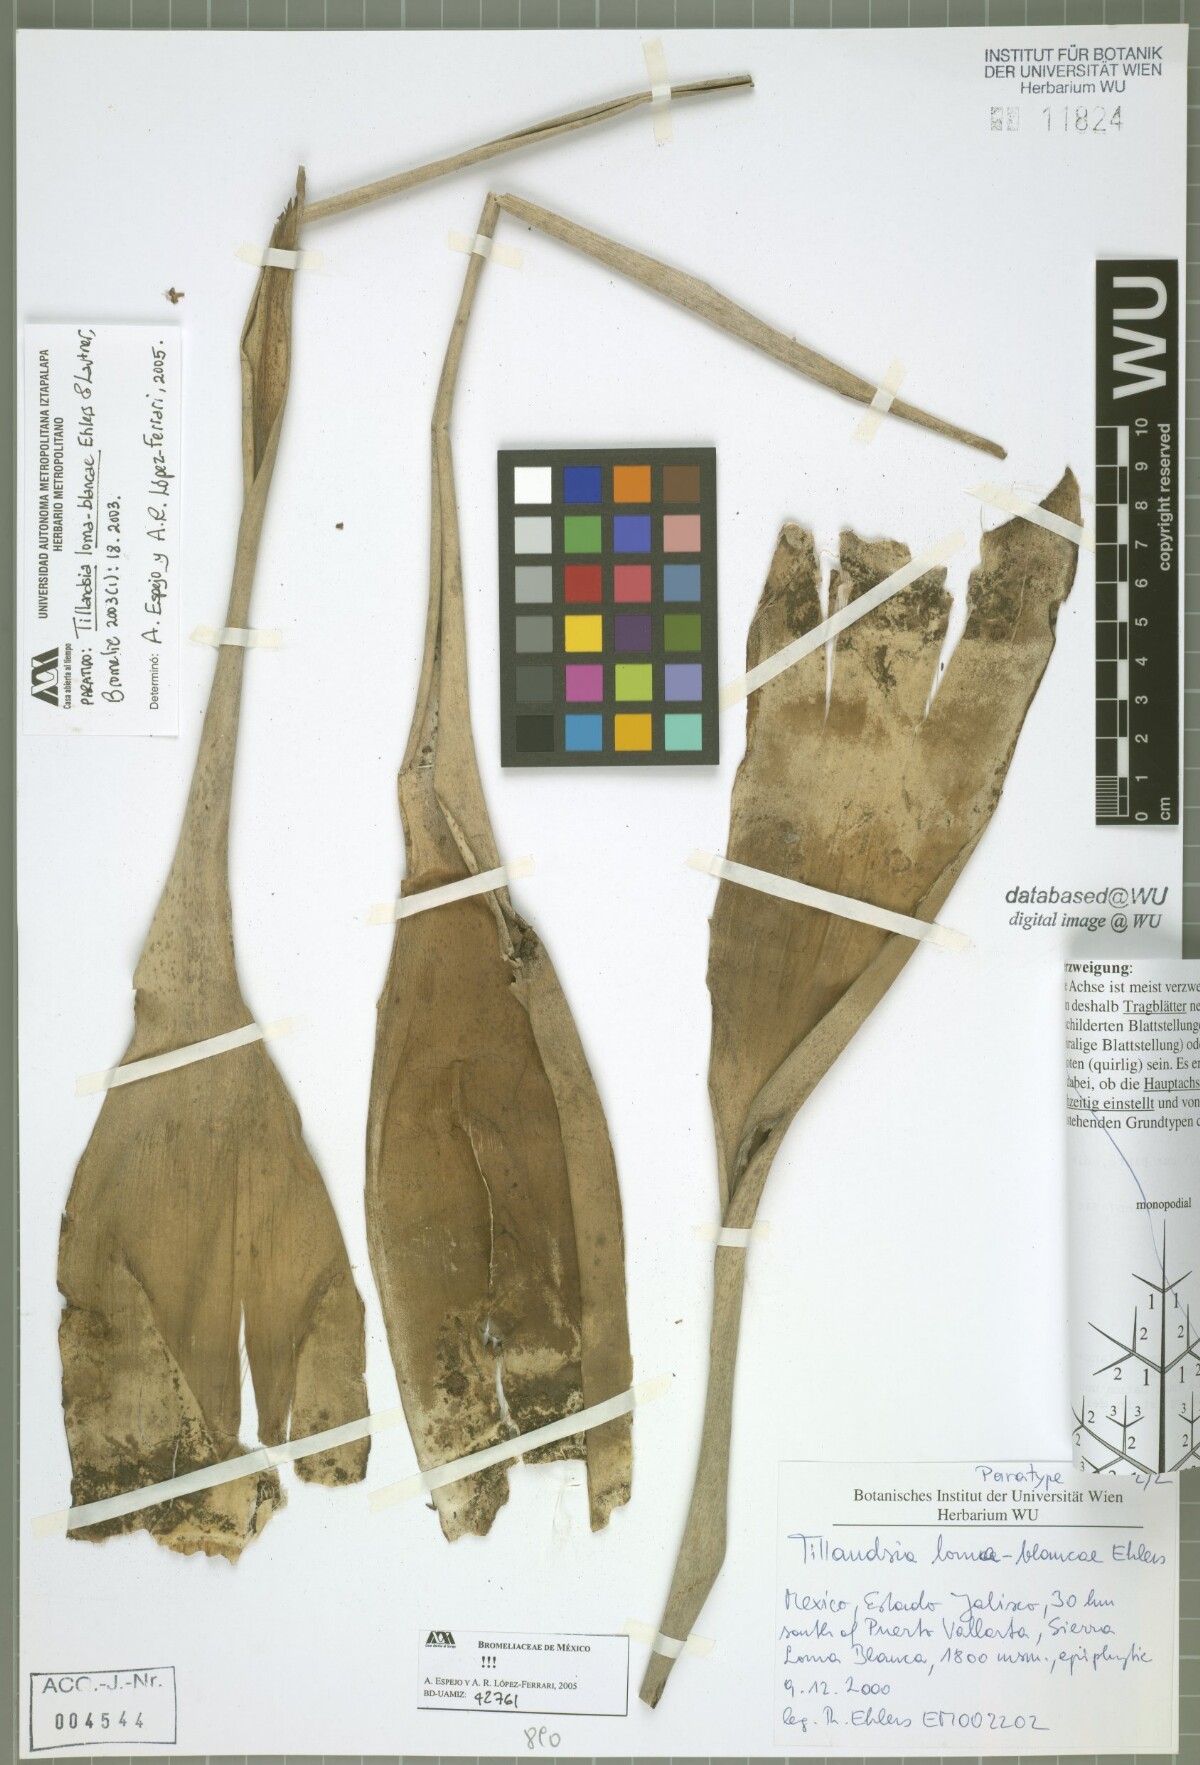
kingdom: Plantae
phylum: Tracheophyta
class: Liliopsida
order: Poales
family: Bromeliaceae
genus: Tillandsia
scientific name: Tillandsia loma-blancae
